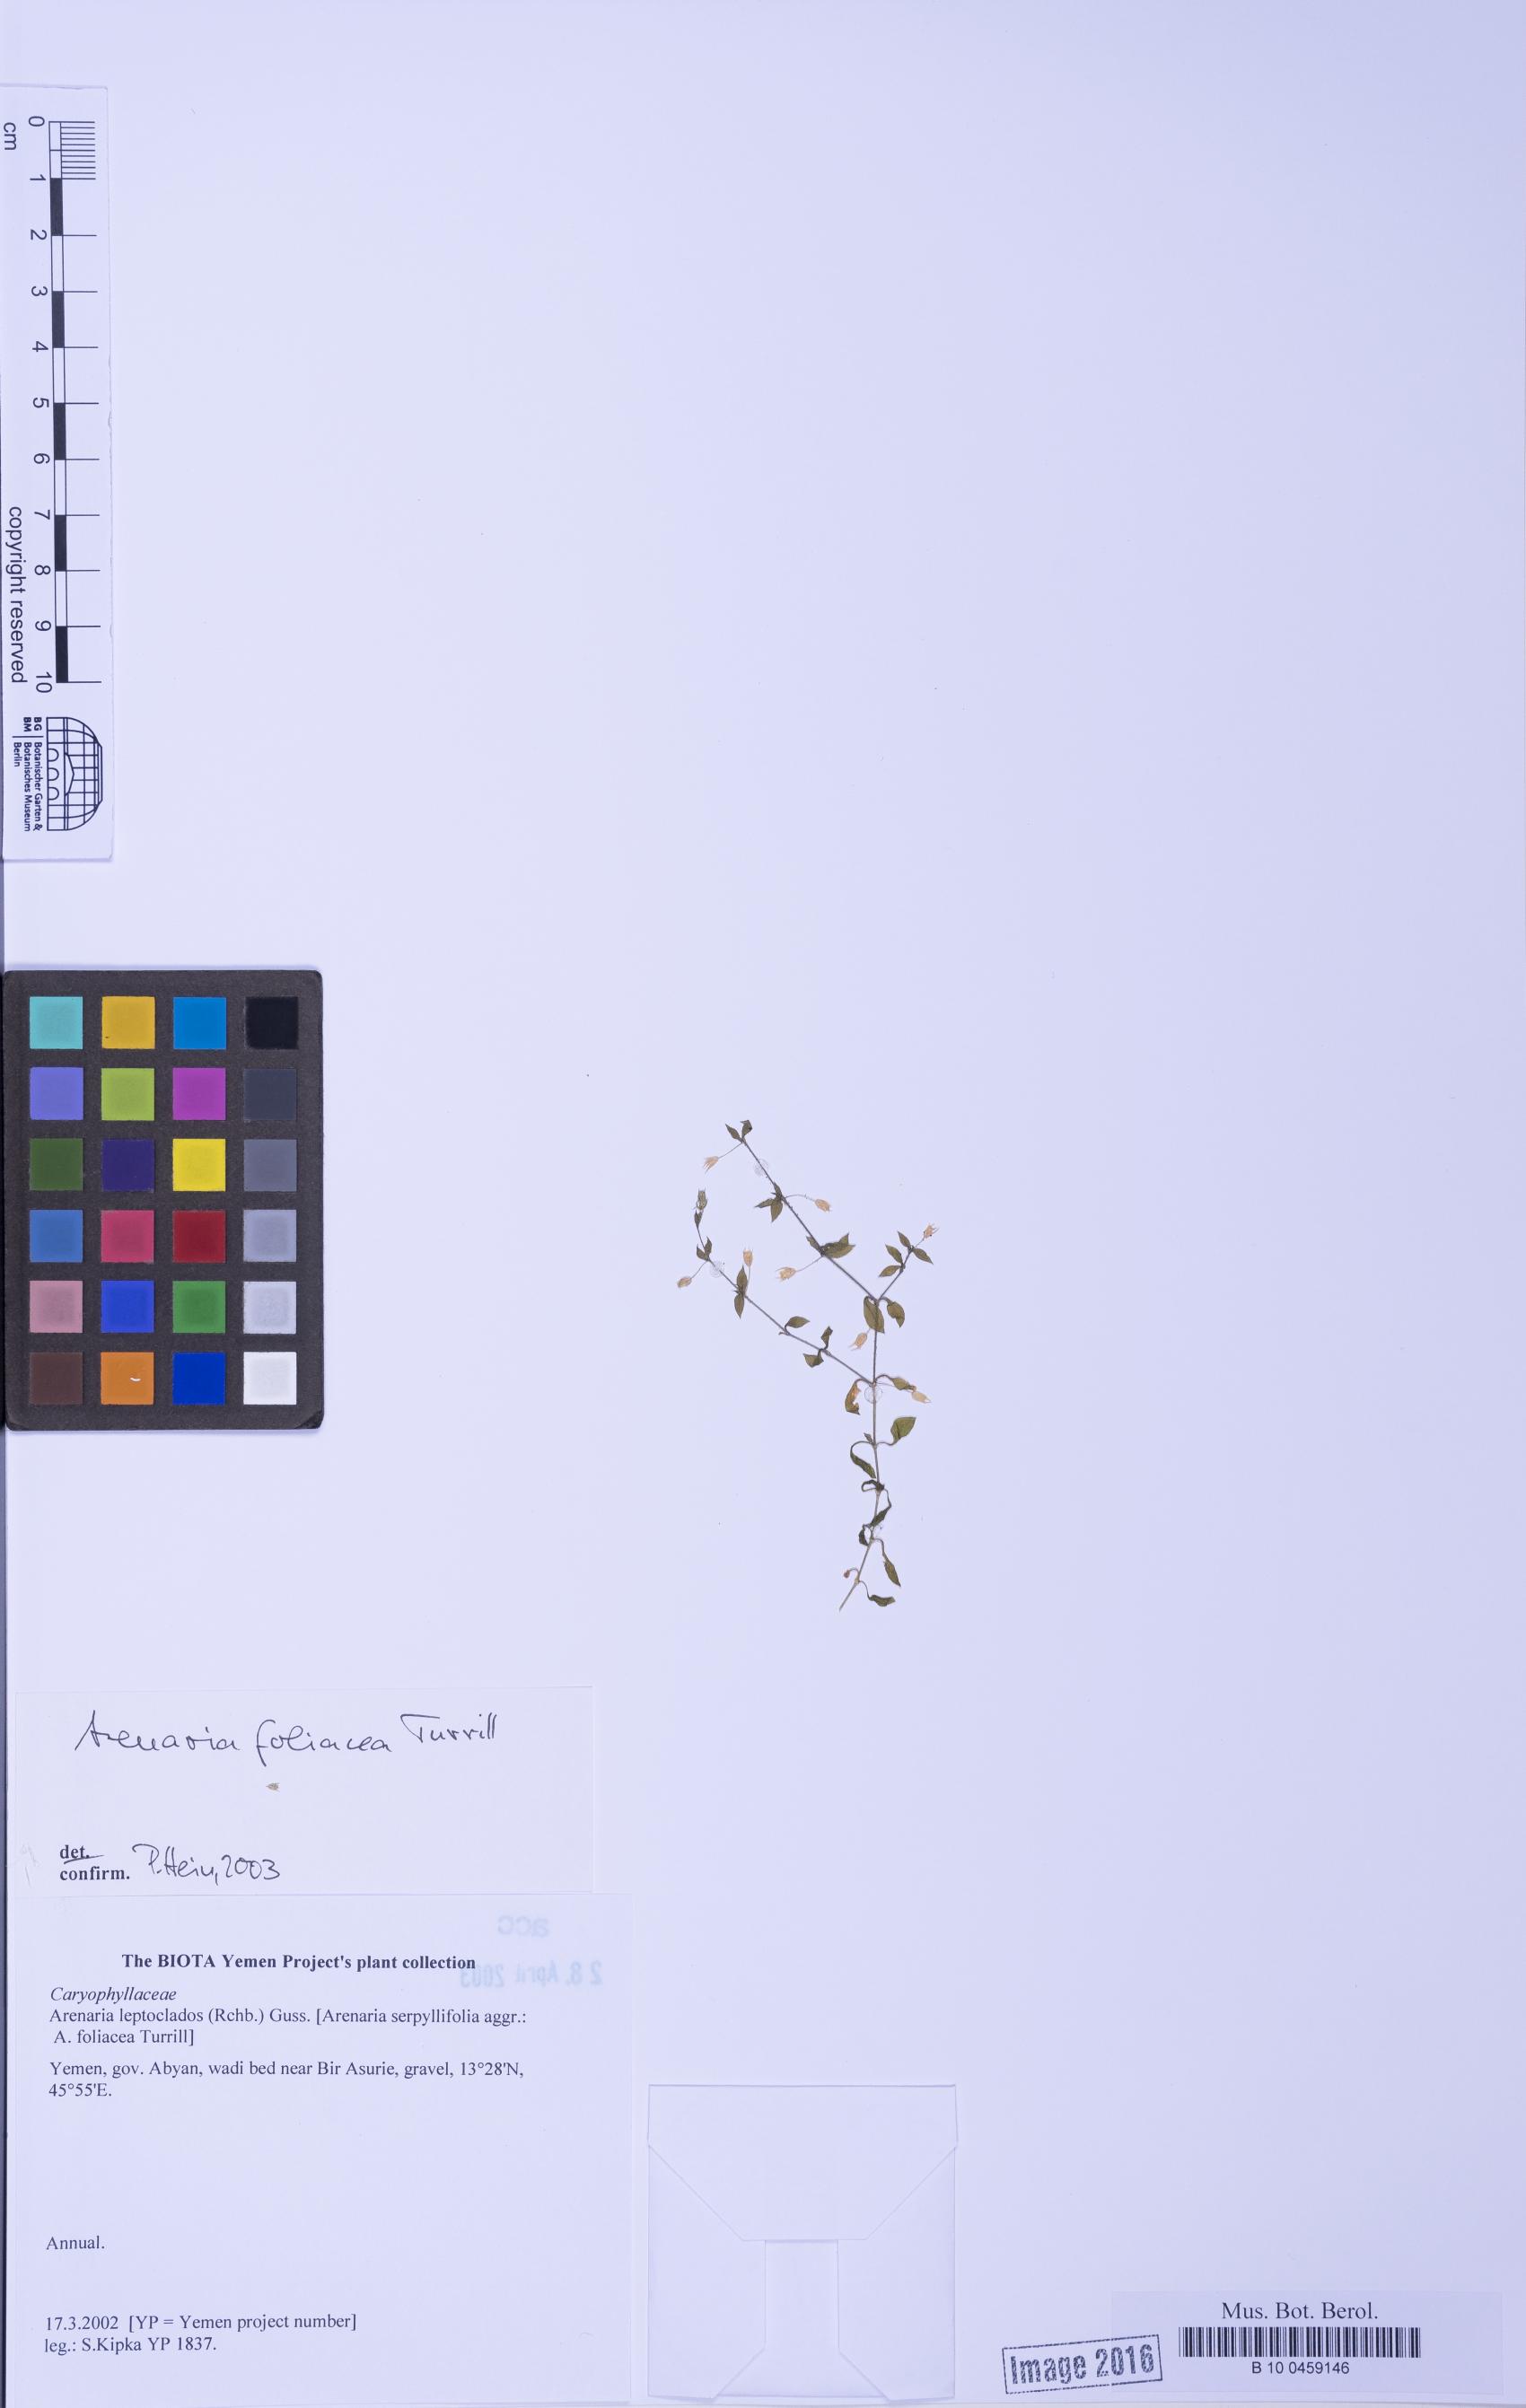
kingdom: Plantae
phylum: Tracheophyta
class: Magnoliopsida
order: Caryophyllales
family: Caryophyllaceae
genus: Arenaria
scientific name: Arenaria leptoclados
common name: Thyme-leaved sandwort
